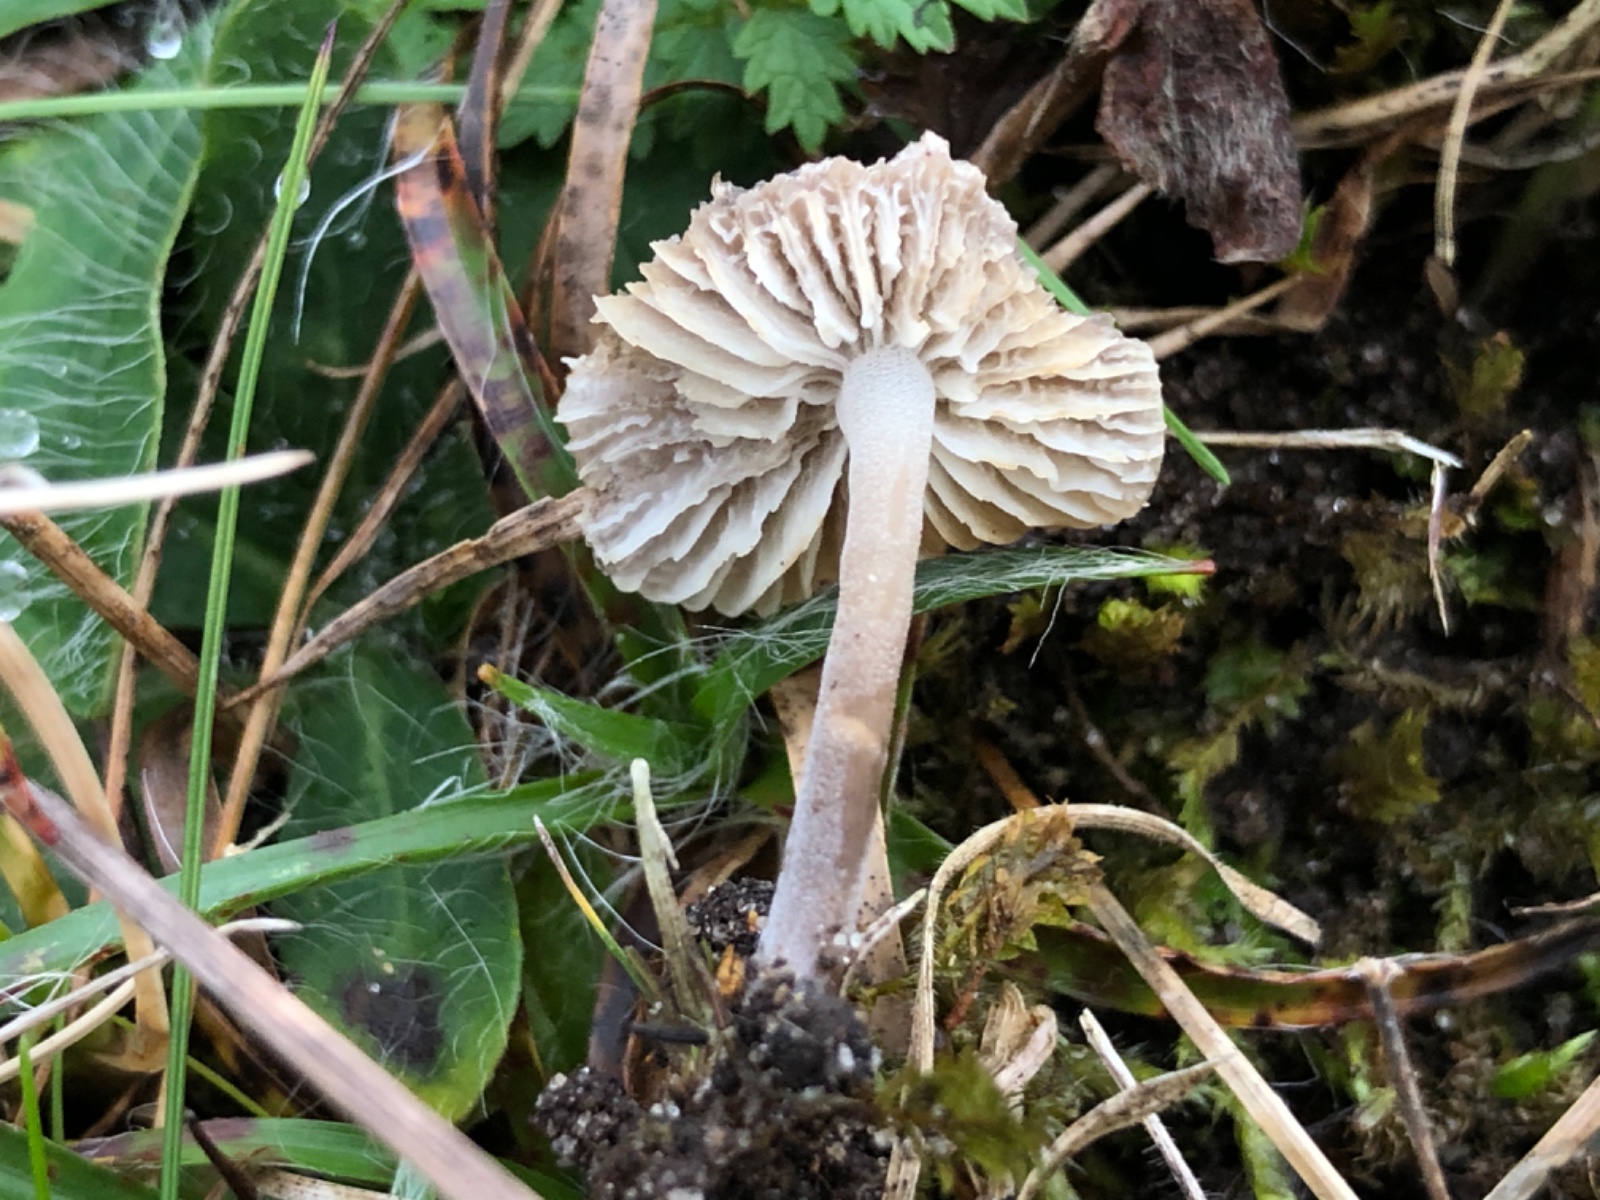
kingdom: Fungi
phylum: Basidiomycota
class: Agaricomycetes
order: Agaricales
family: Tricholomataceae
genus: Mycenella
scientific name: Mycenella salicina
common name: glatsporet dughat
